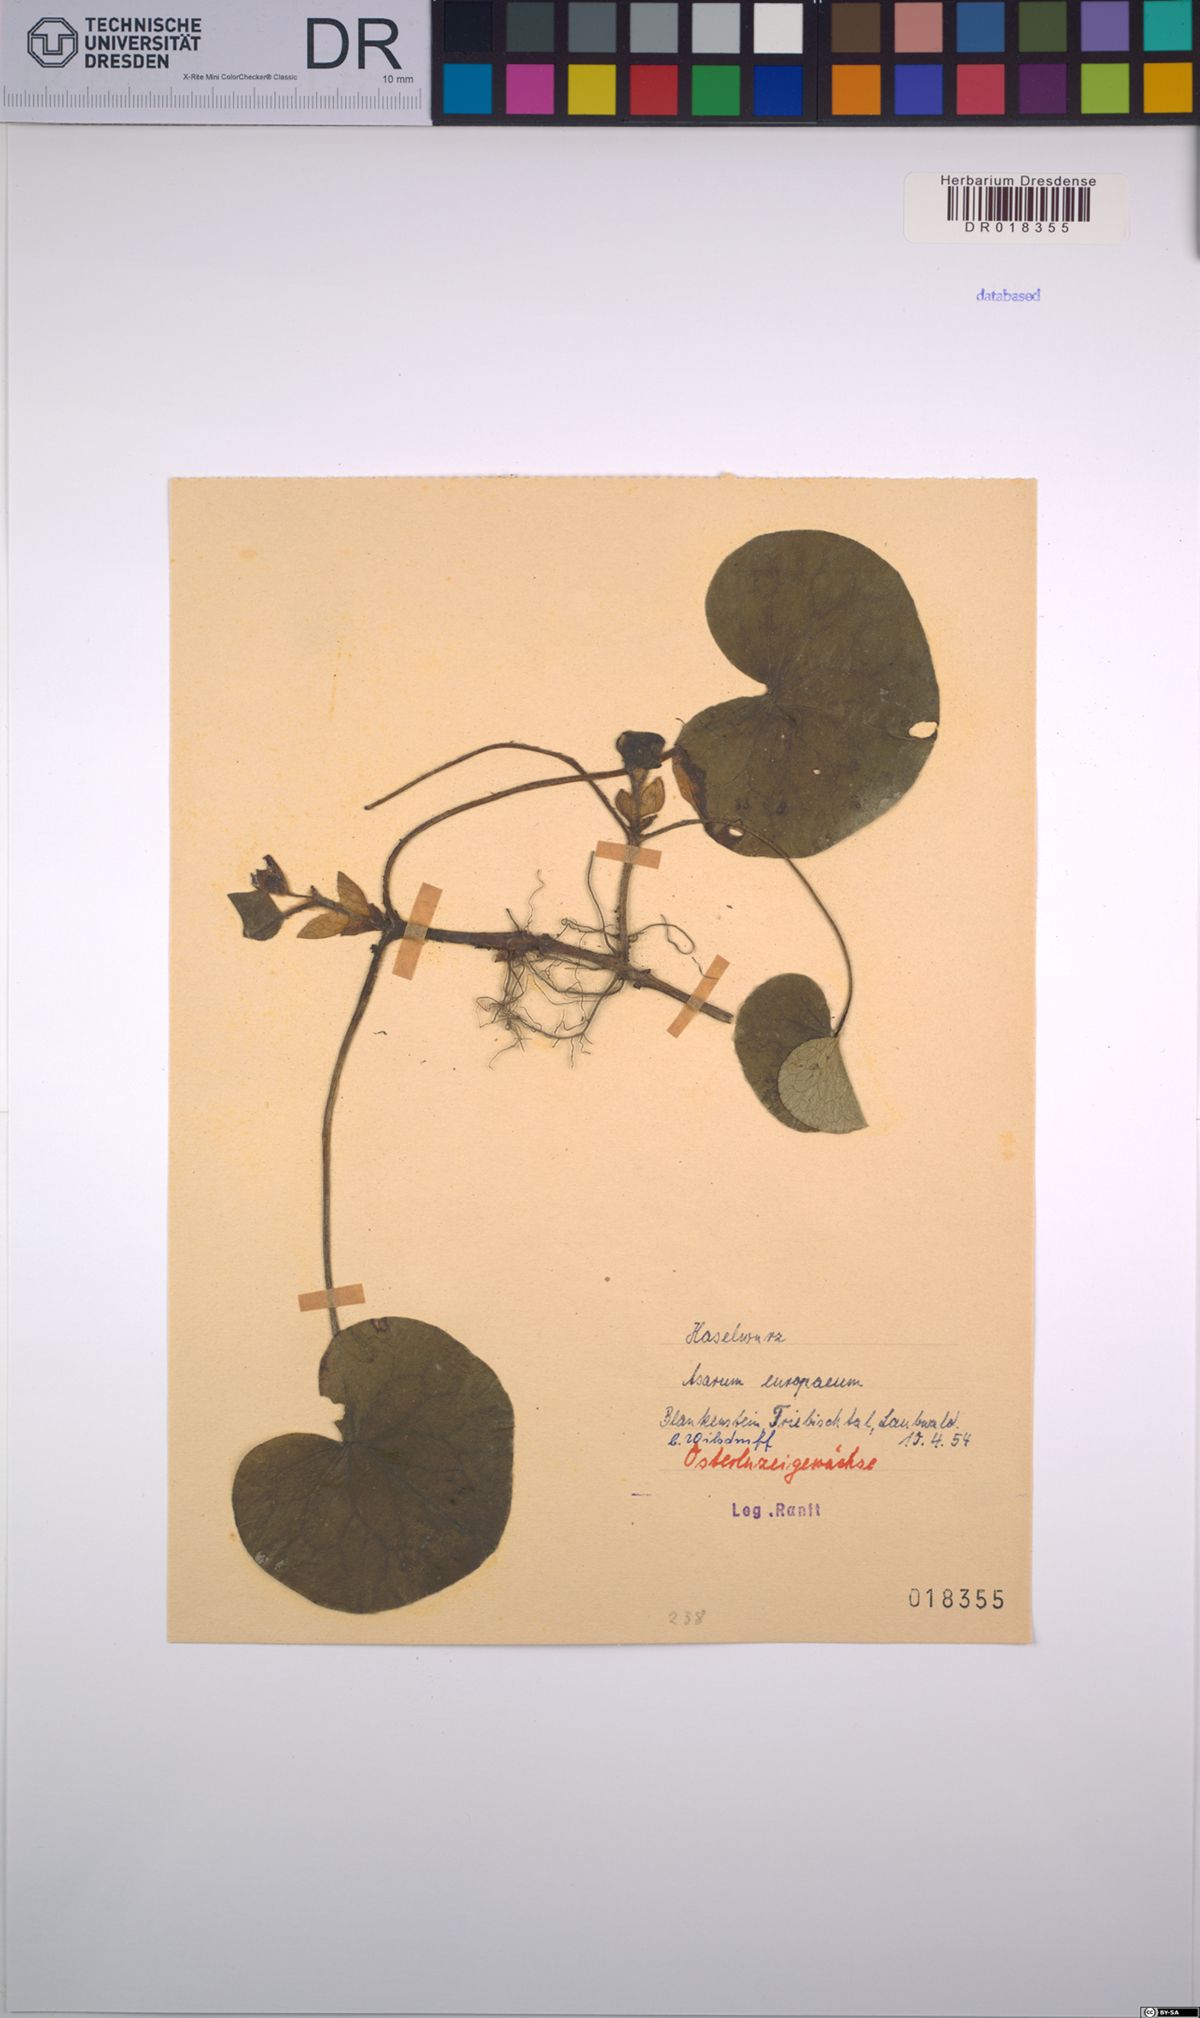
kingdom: Plantae
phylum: Tracheophyta
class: Magnoliopsida
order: Piperales
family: Aristolochiaceae
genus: Asarum
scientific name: Asarum europaeum
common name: Asarabacca
